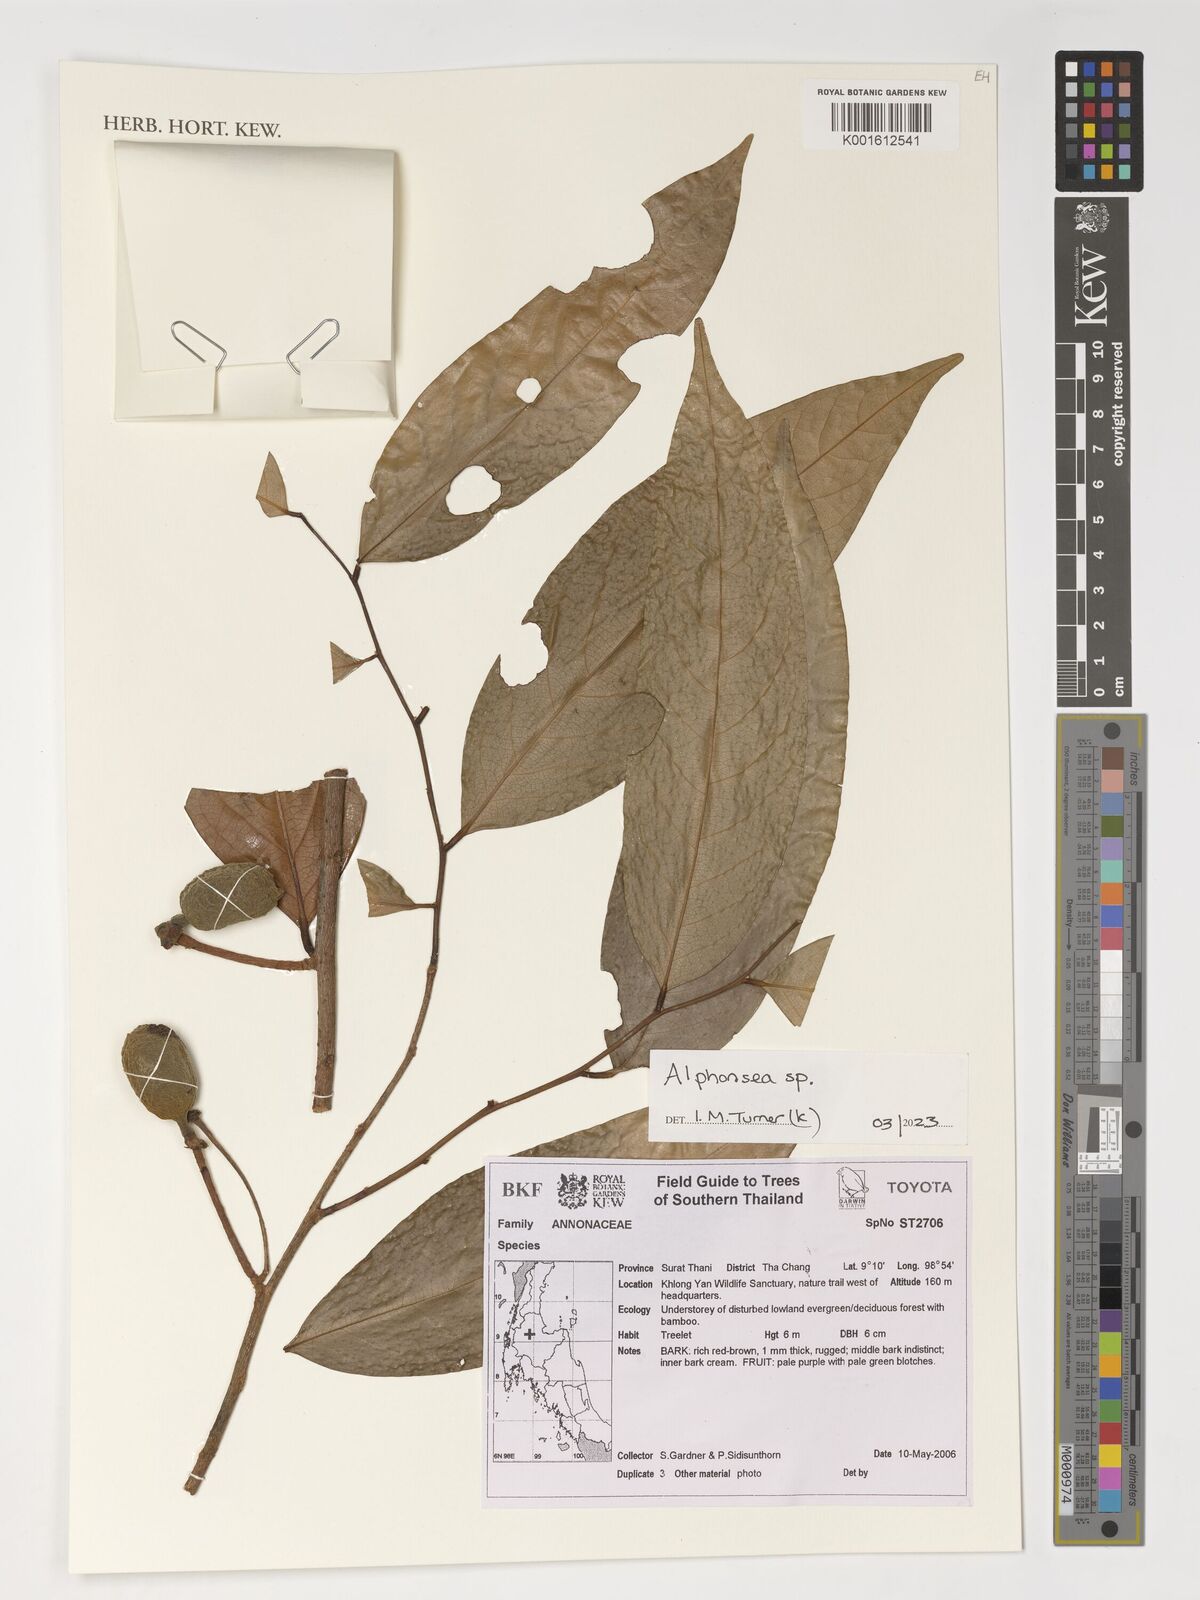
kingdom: Plantae
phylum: Tracheophyta
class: Magnoliopsida
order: Magnoliales
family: Annonaceae
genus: Alphonsea
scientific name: Alphonsea
